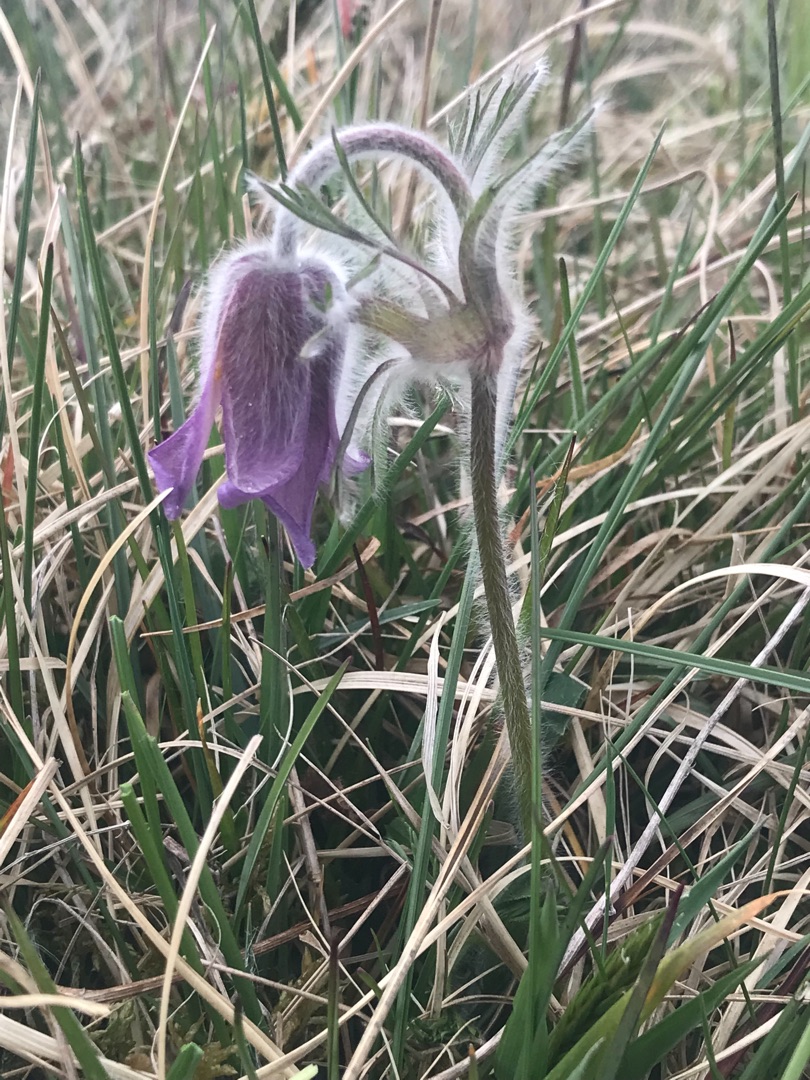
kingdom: Plantae
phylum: Tracheophyta
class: Magnoliopsida
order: Ranunculales
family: Ranunculaceae
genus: Pulsatilla
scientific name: Pulsatilla pratensis
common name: Nikkende kobjælde
